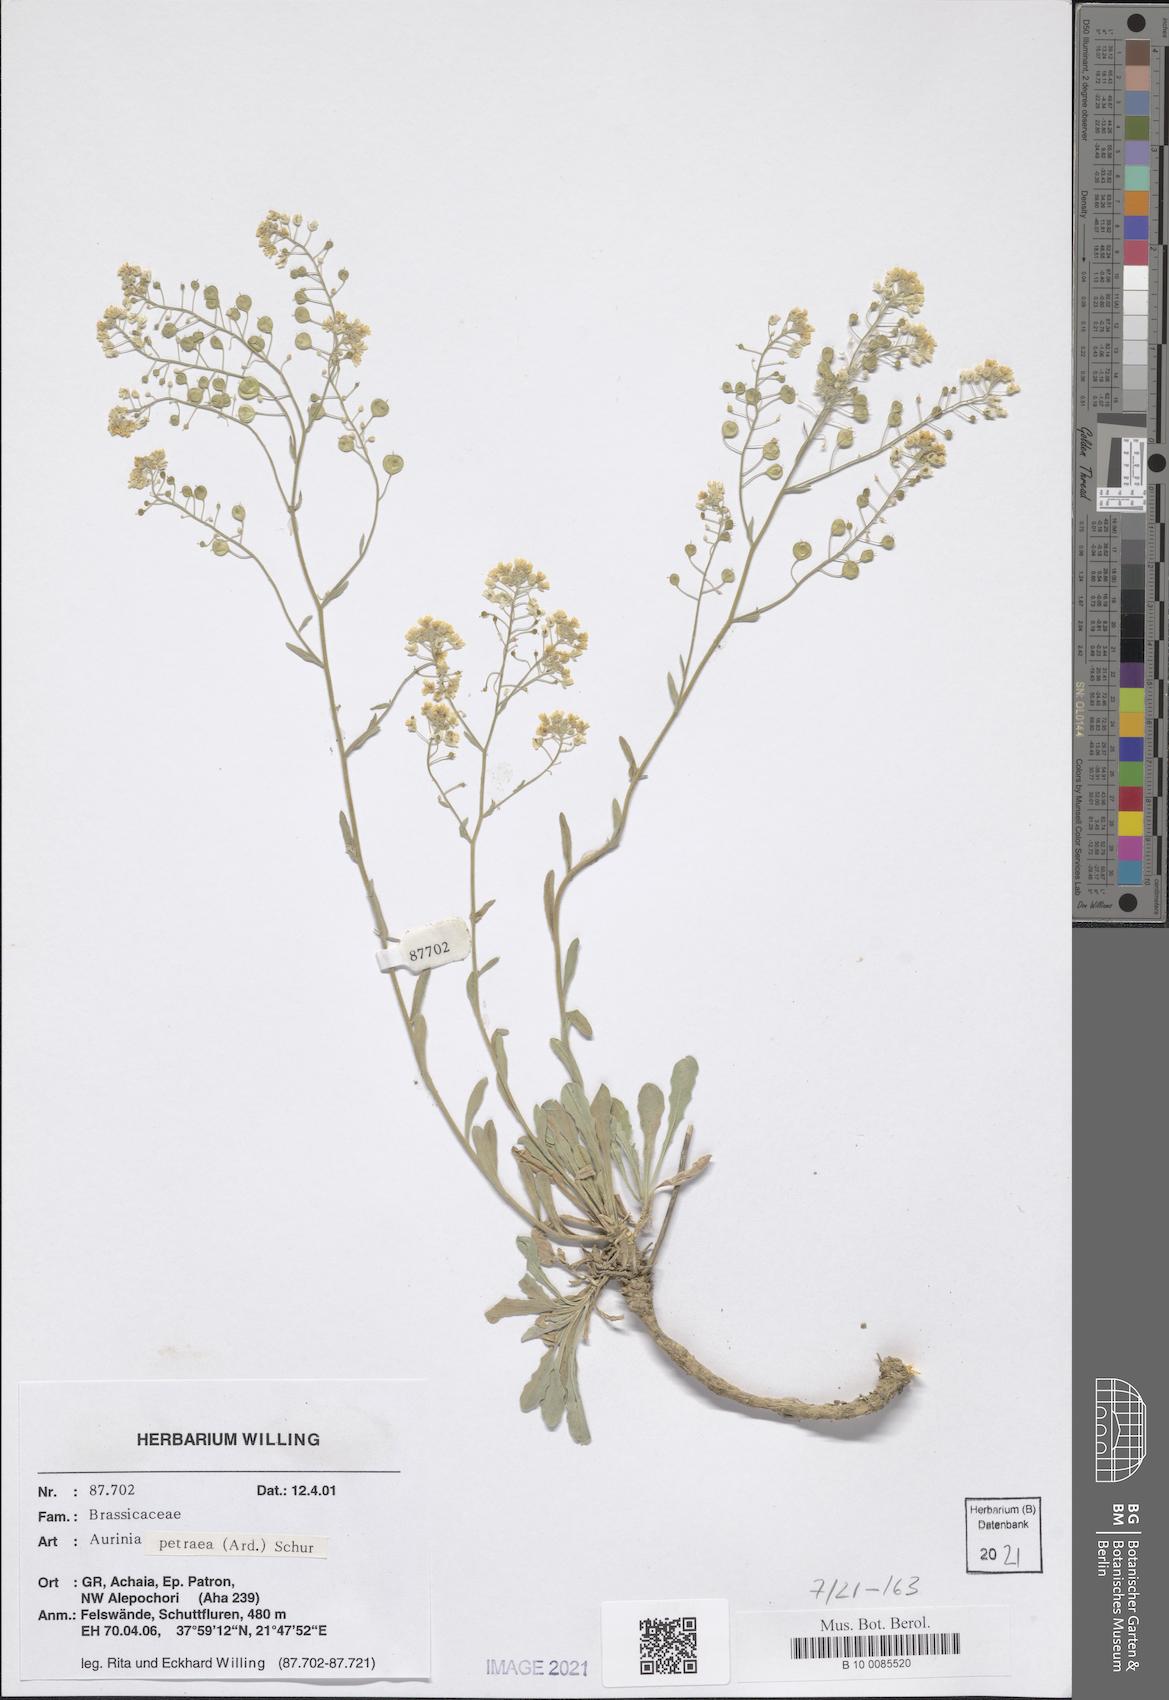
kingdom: Plantae
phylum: Tracheophyta
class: Magnoliopsida
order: Brassicales
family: Brassicaceae
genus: Aurinia
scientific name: Aurinia petraea
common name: Goldentuft
